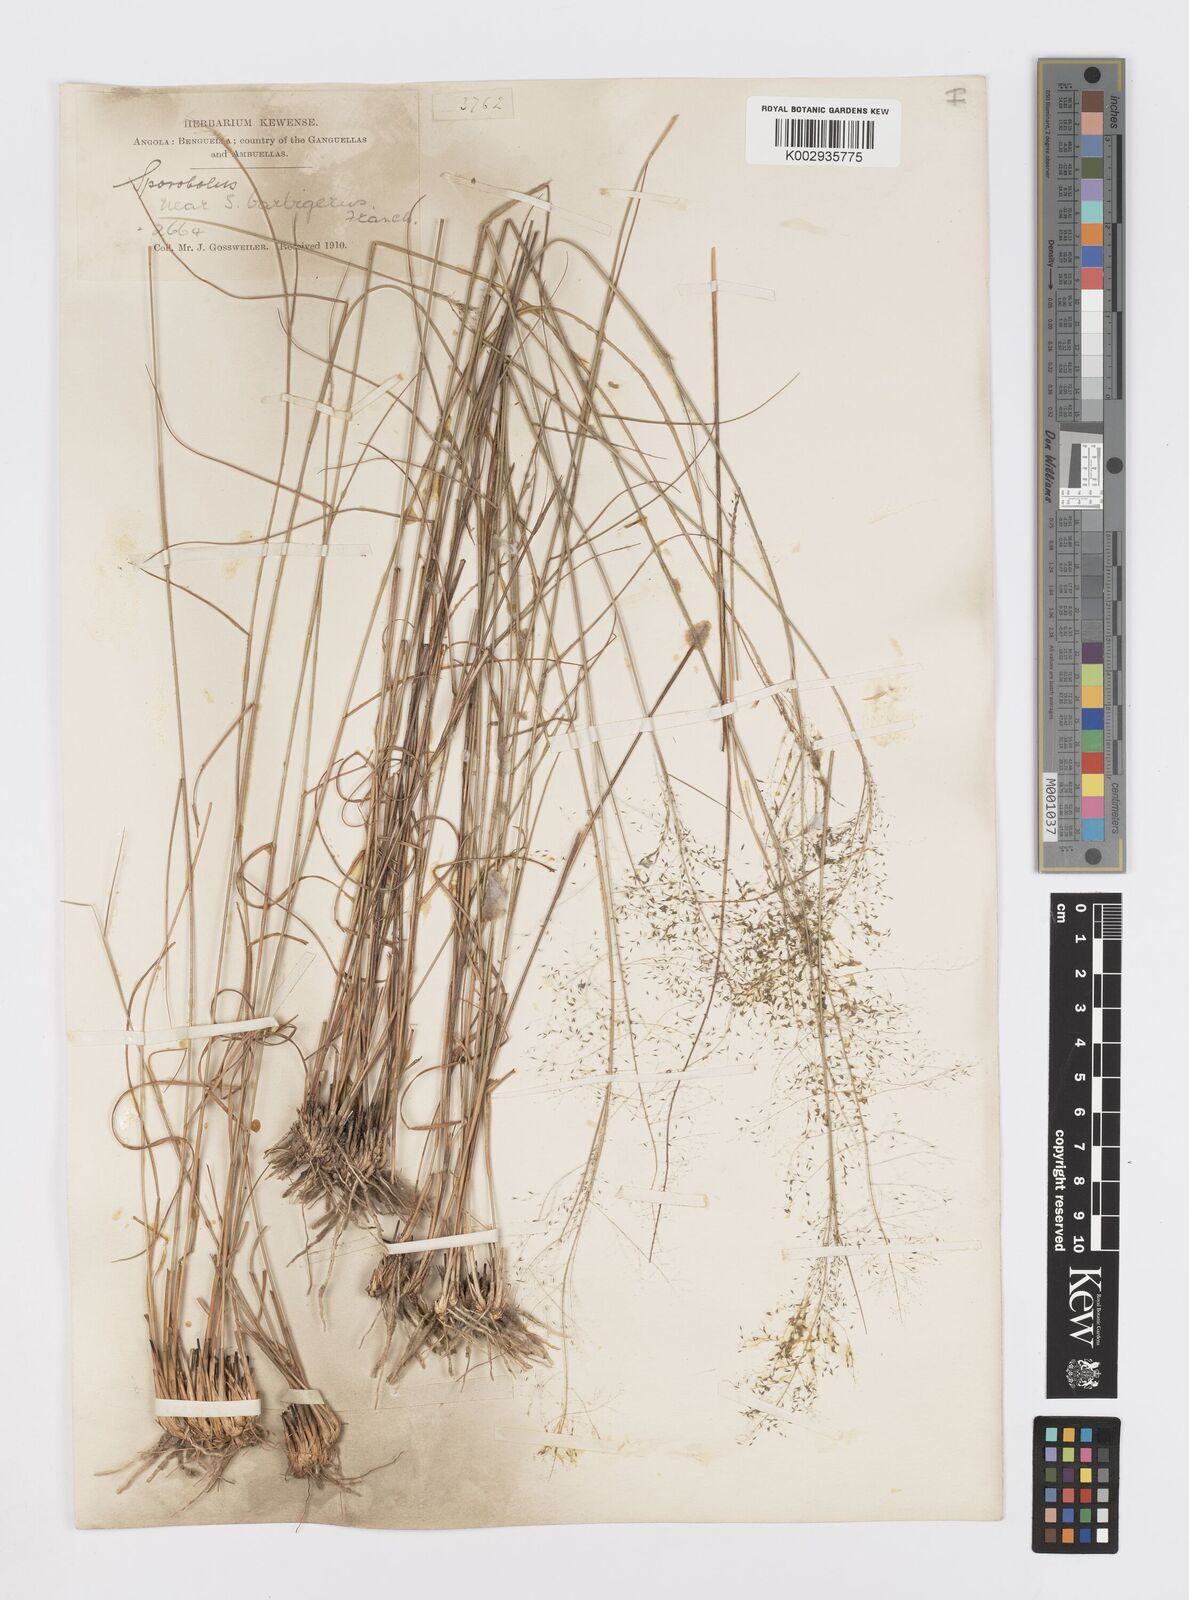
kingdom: Plantae
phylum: Tracheophyta
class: Liliopsida
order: Poales
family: Poaceae
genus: Sporobolus
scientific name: Sporobolus welwitschii
